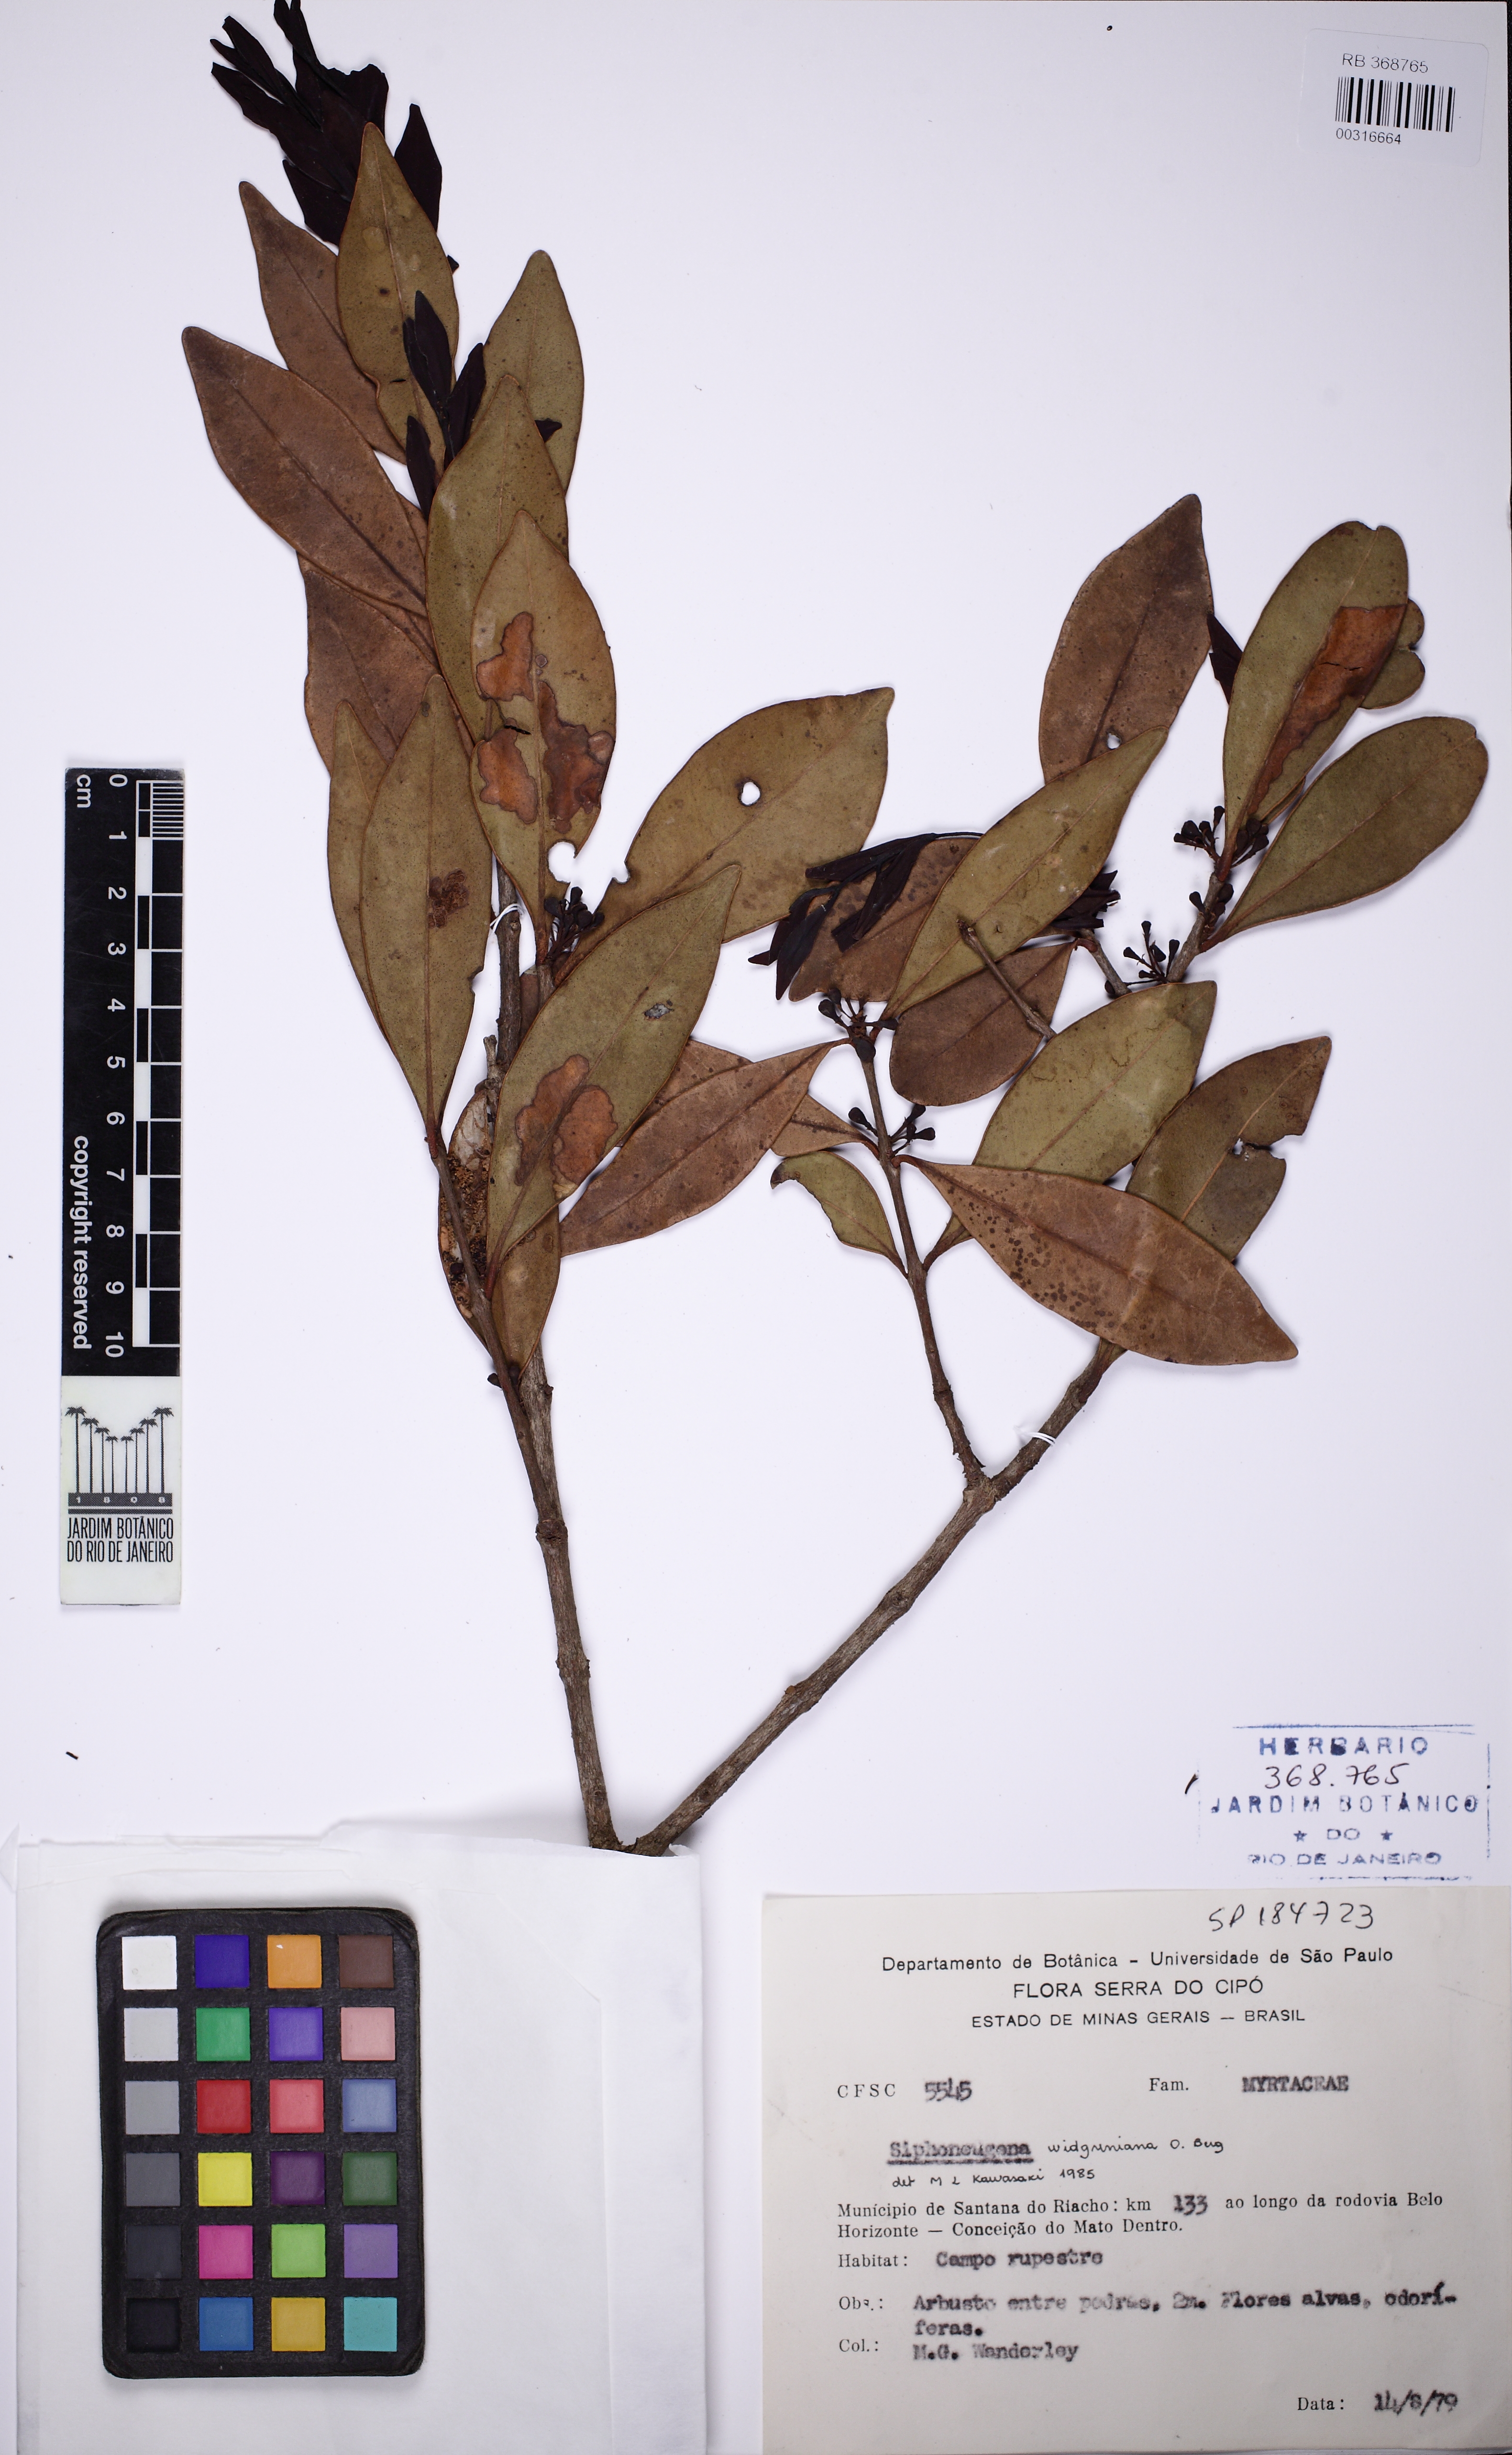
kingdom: Plantae
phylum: Tracheophyta
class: Magnoliopsida
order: Myrtales
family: Myrtaceae
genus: Siphoneugena
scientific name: Siphoneugena crassifolia
